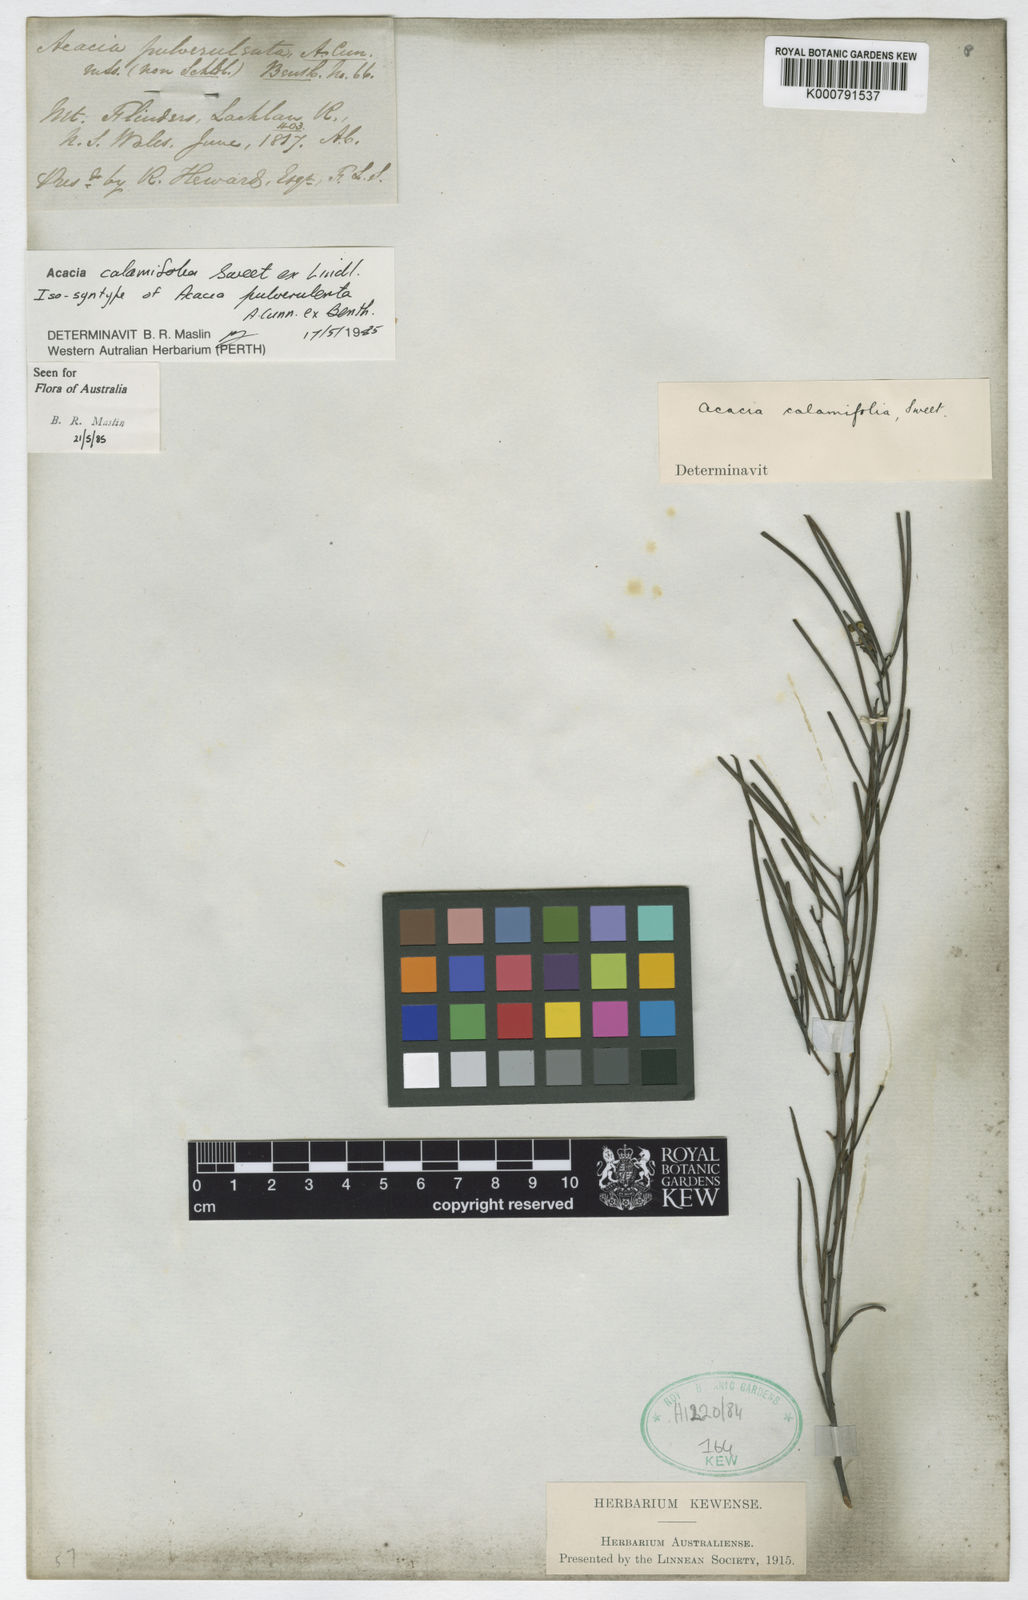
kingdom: Plantae
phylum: Tracheophyta
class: Magnoliopsida
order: Fabales
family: Fabaceae
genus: Acacia
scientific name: Acacia calamifolia
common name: Broom wattle
